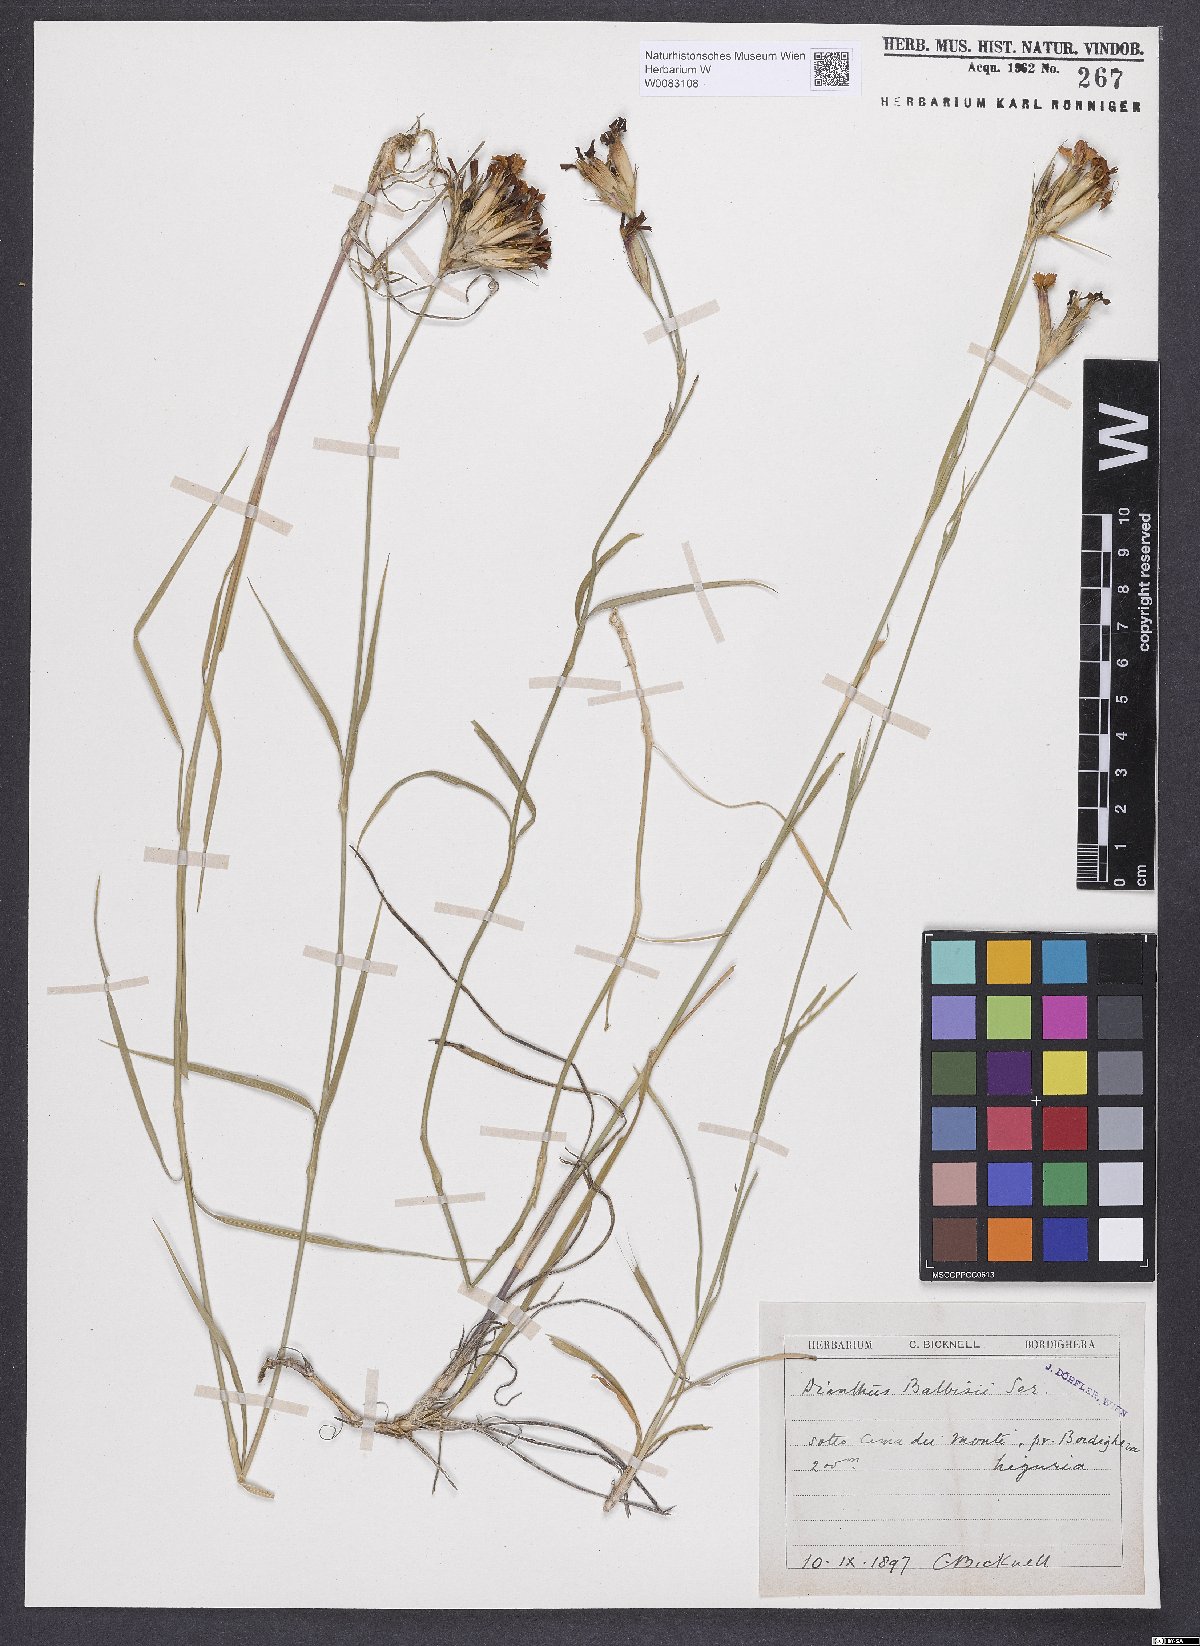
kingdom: Plantae
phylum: Tracheophyta
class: Magnoliopsida
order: Caryophyllales
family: Caryophyllaceae
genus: Dianthus
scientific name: Dianthus crassipes
